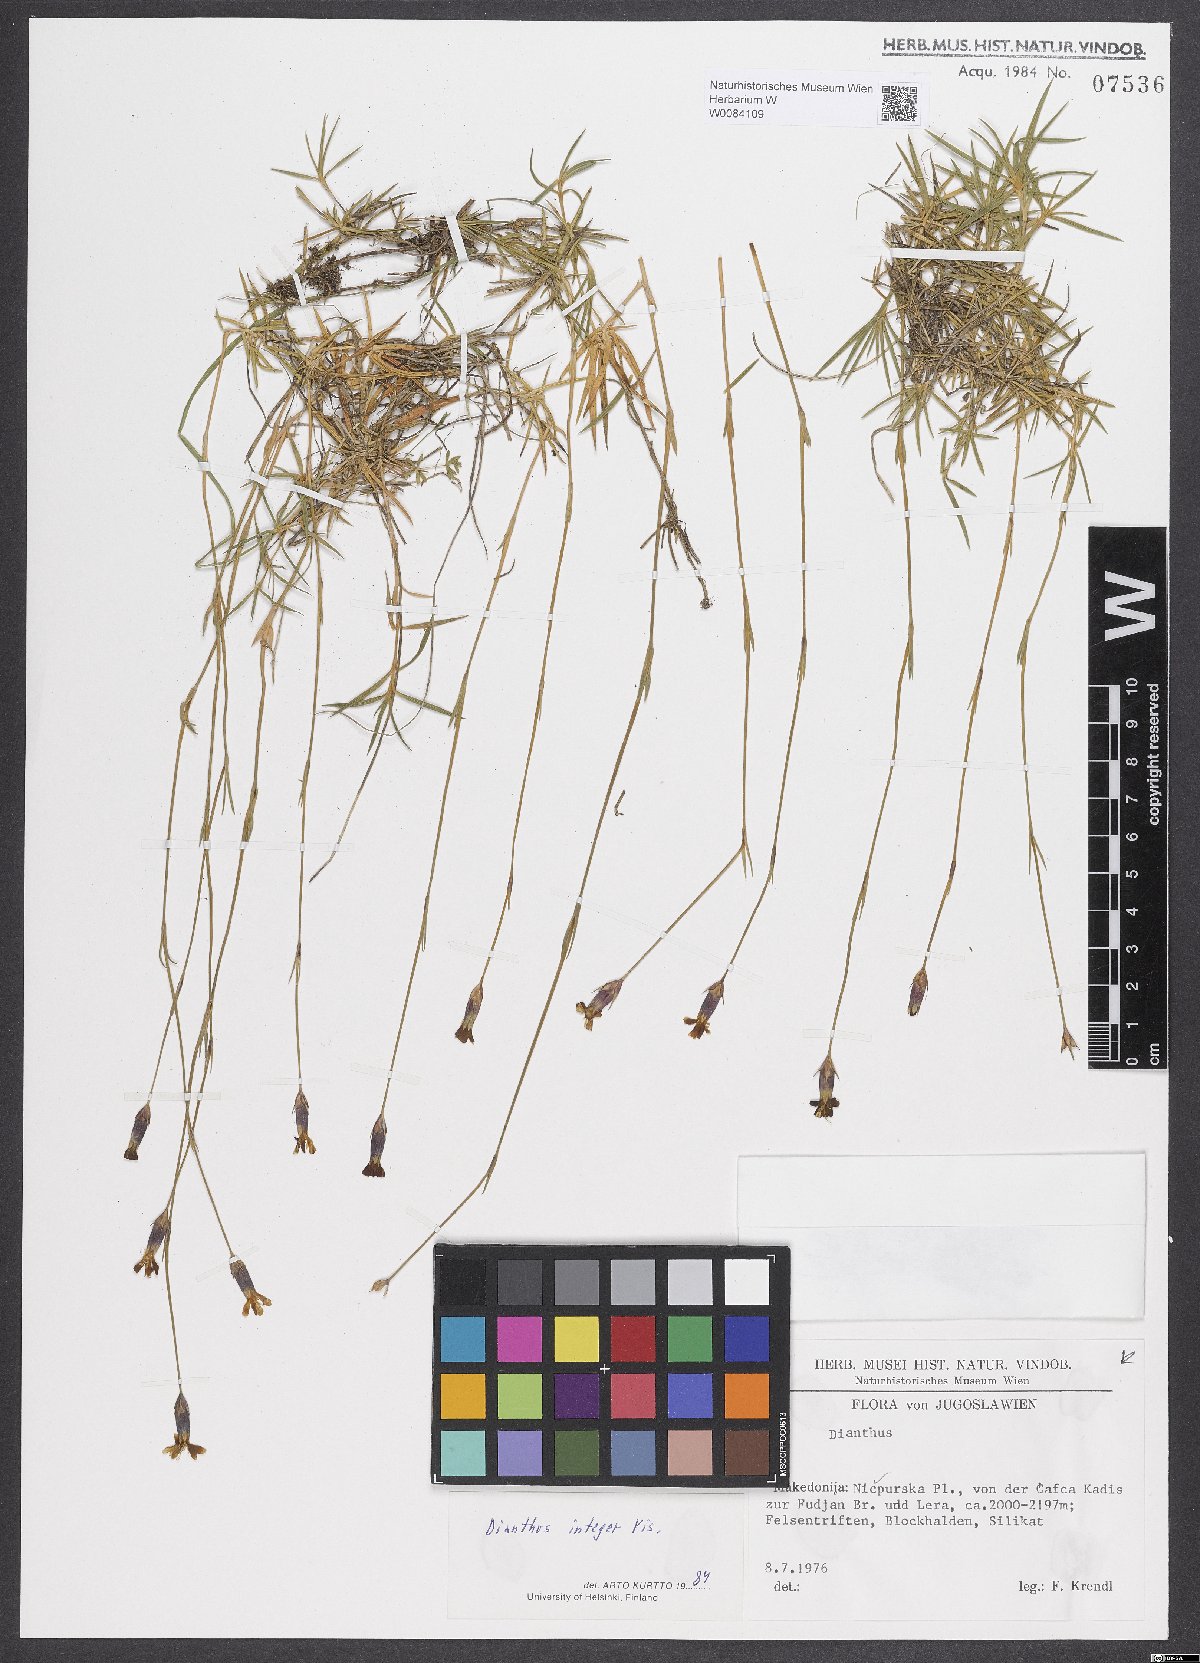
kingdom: Plantae
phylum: Tracheophyta
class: Magnoliopsida
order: Caryophyllales
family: Caryophyllaceae
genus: Dianthus
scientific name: Dianthus integer
